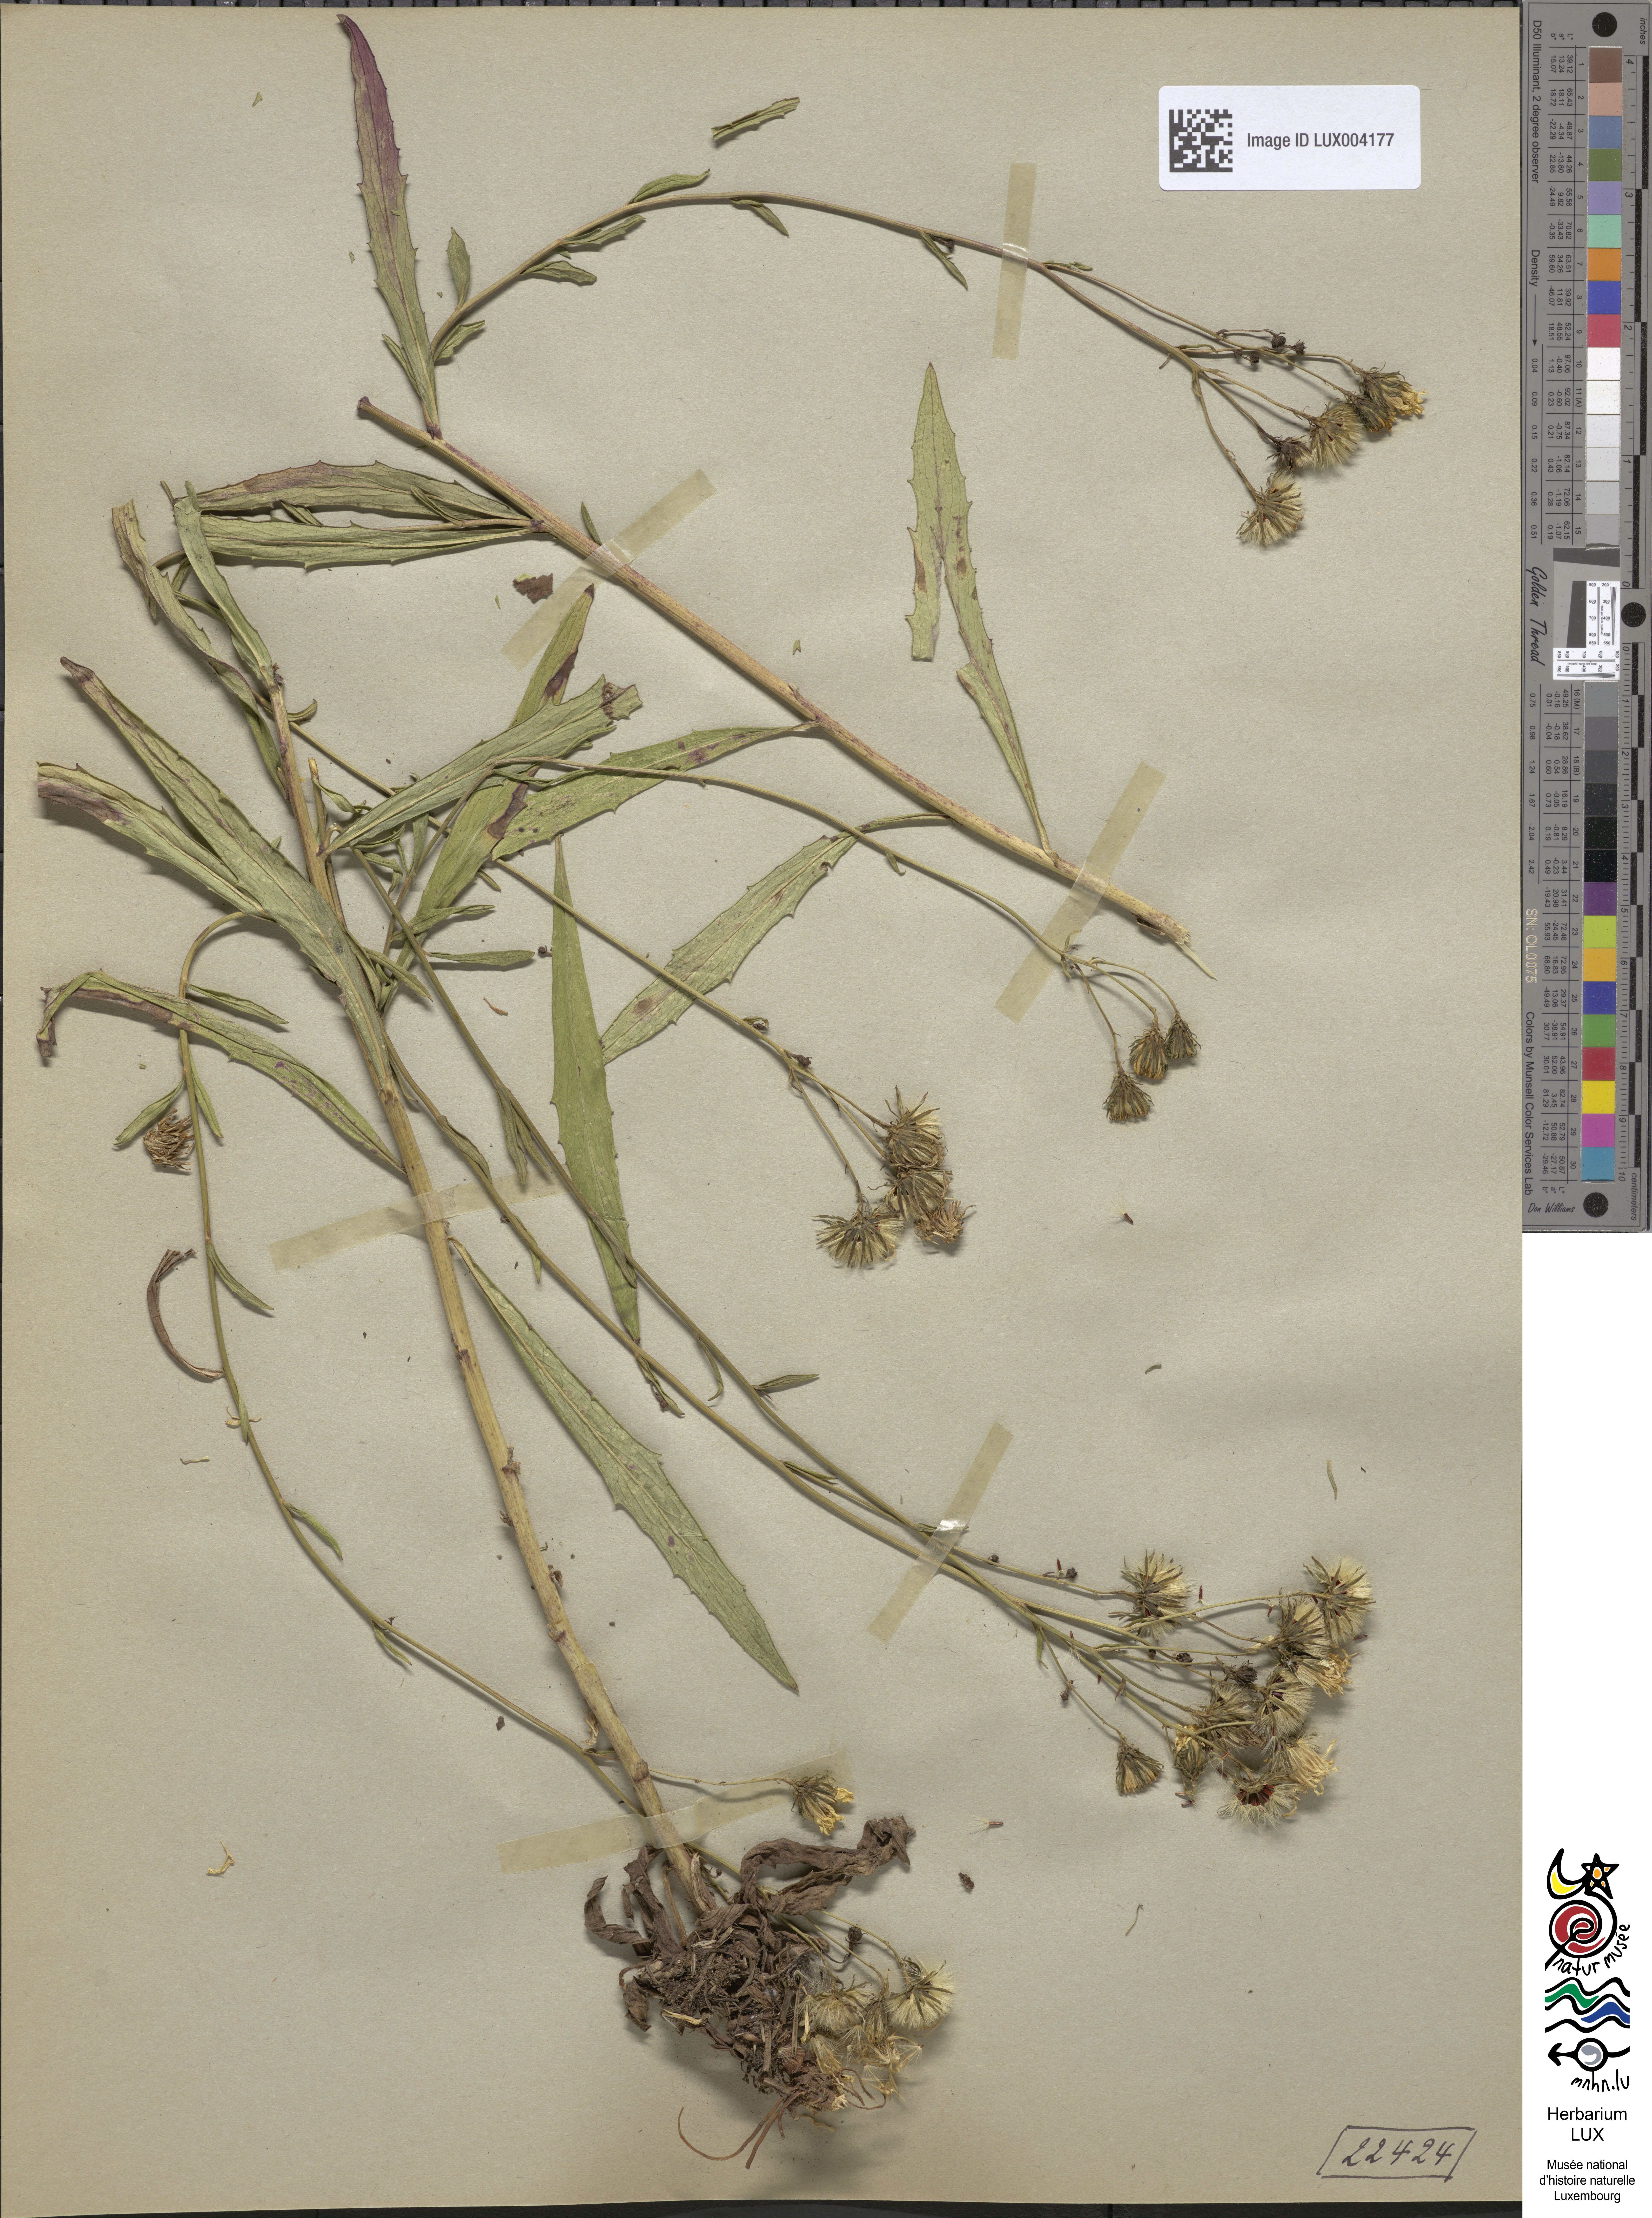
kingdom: Plantae
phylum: Tracheophyta
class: Magnoliopsida
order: Asterales
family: Asteraceae
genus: Hieracium
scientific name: Hieracium umbellatum
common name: Northern hawkweed
